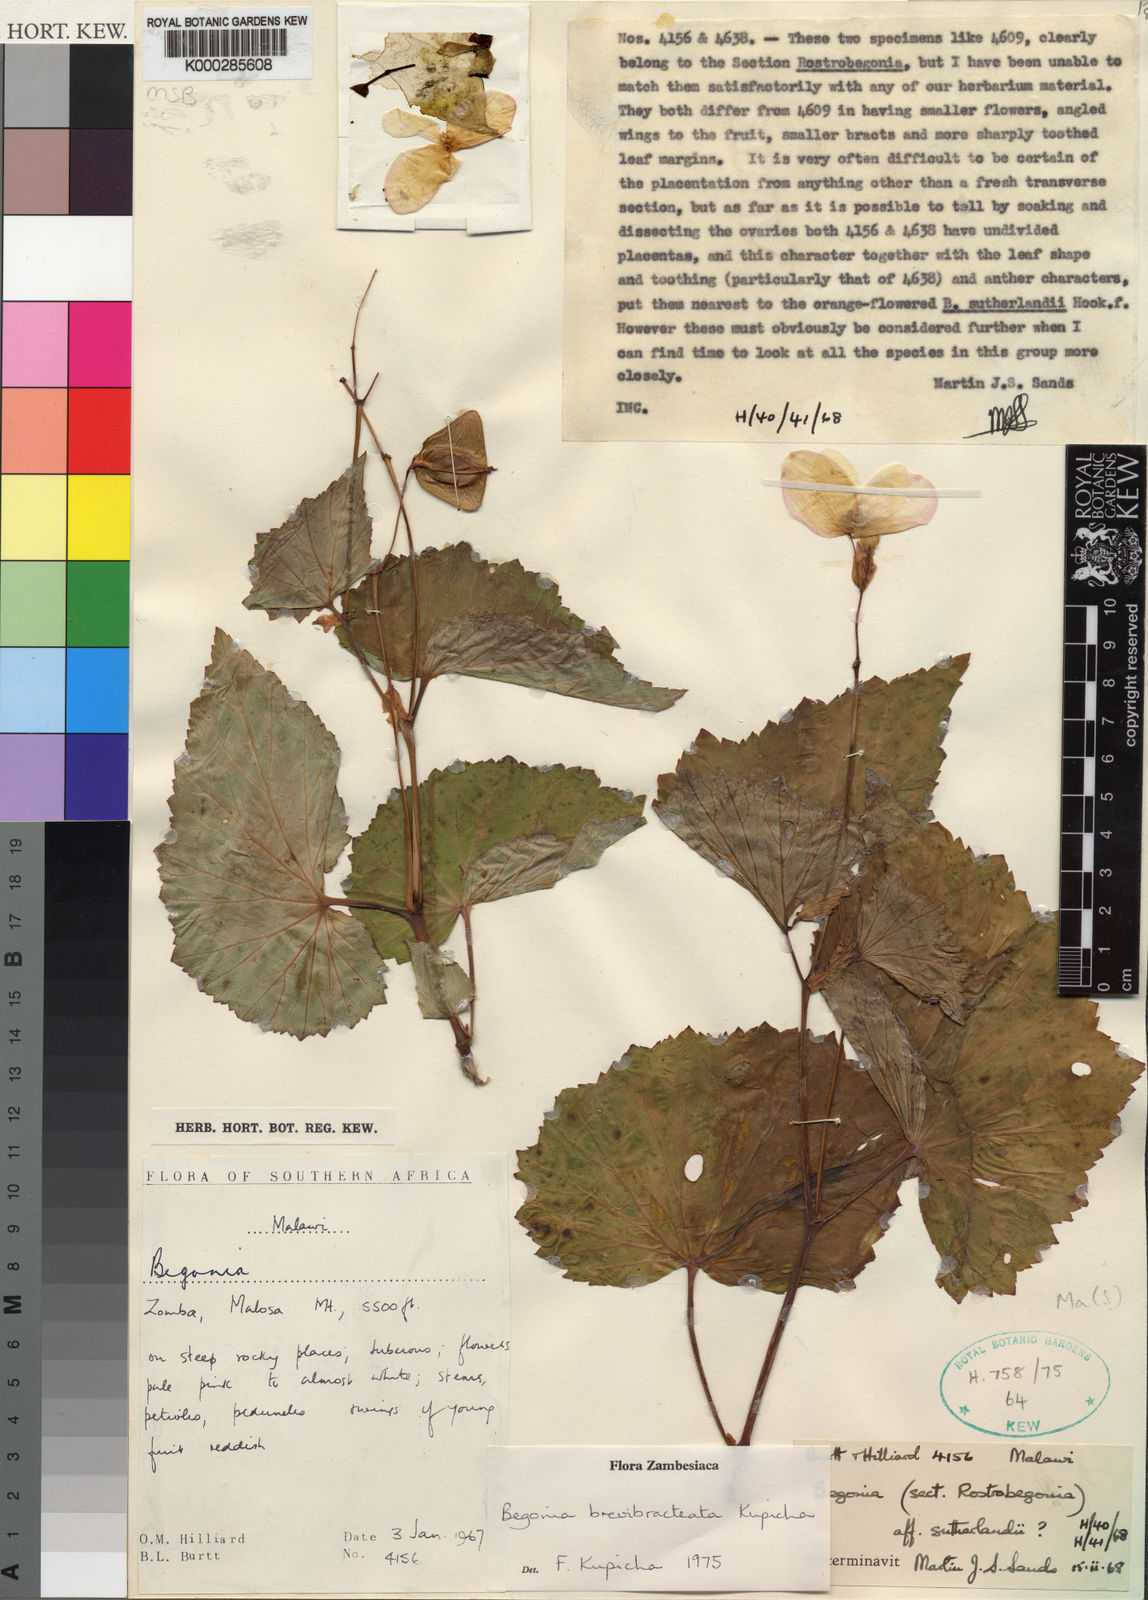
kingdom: Plantae
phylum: Tracheophyta
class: Magnoliopsida
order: Cucurbitales
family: Begoniaceae
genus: Begonia
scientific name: Begonia brevibracteata
